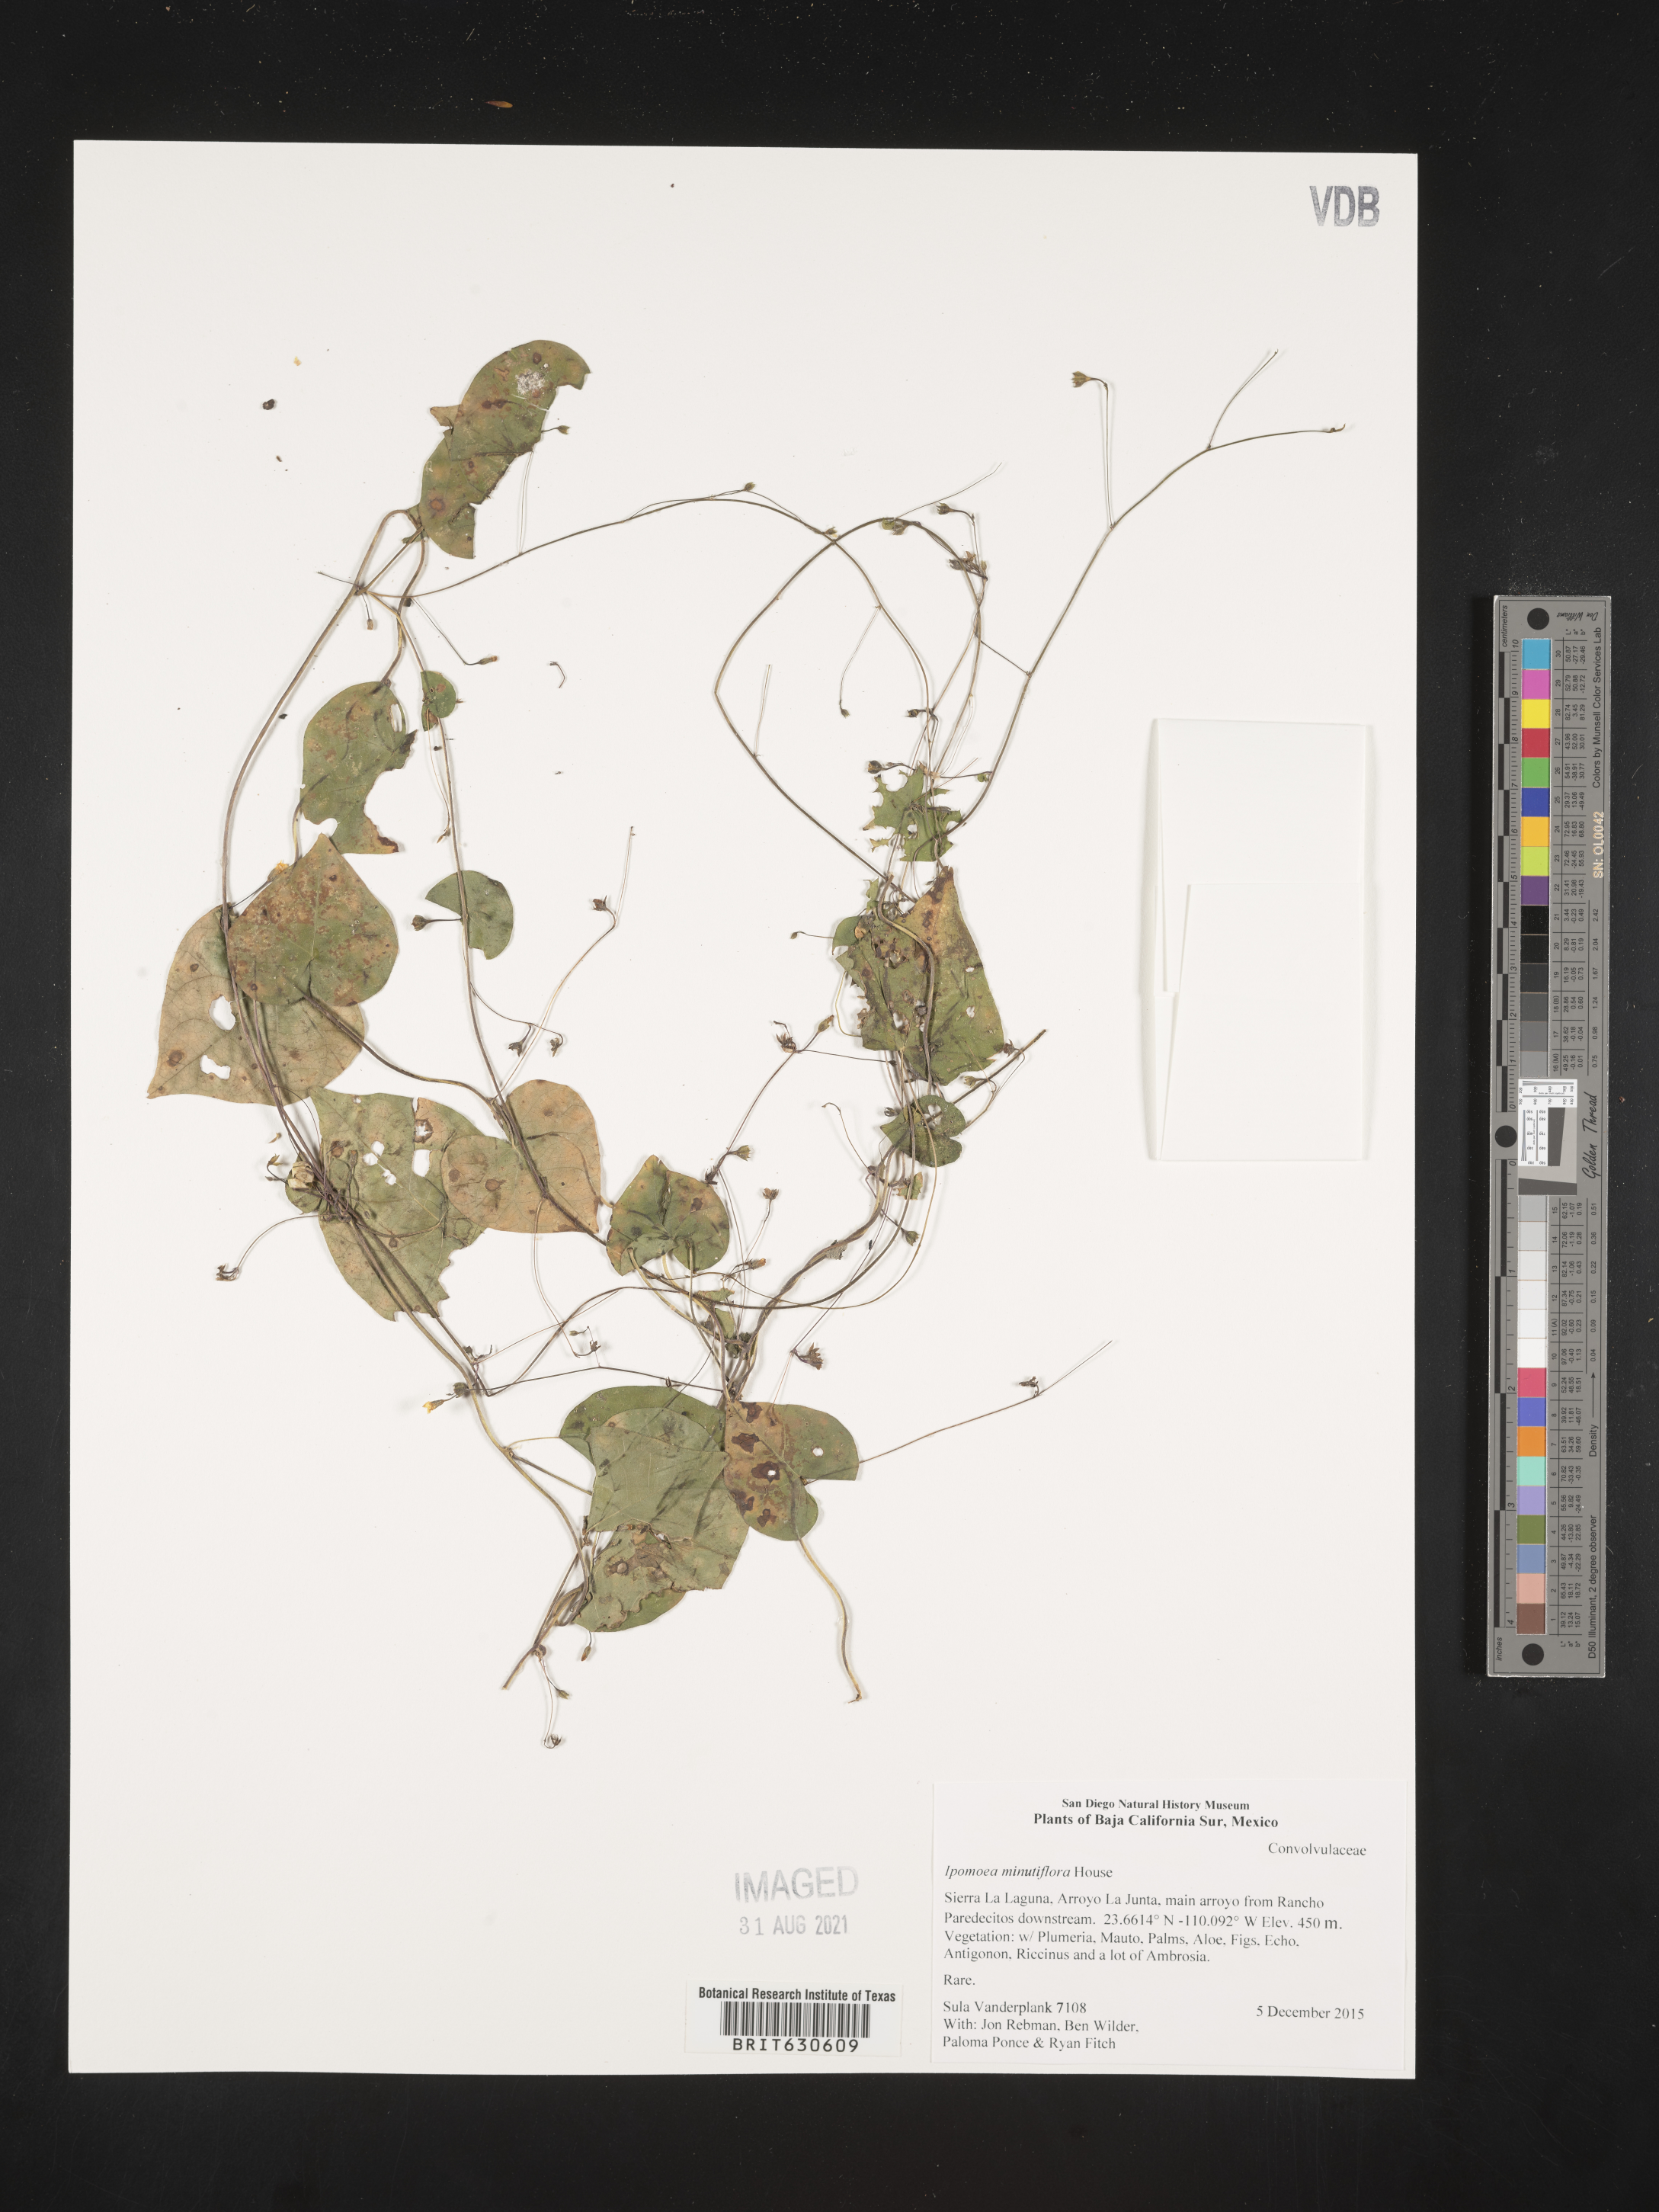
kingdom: Plantae
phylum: Tracheophyta
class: Magnoliopsida
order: Solanales
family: Convolvulaceae
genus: Ipomoea
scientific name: Ipomoea
